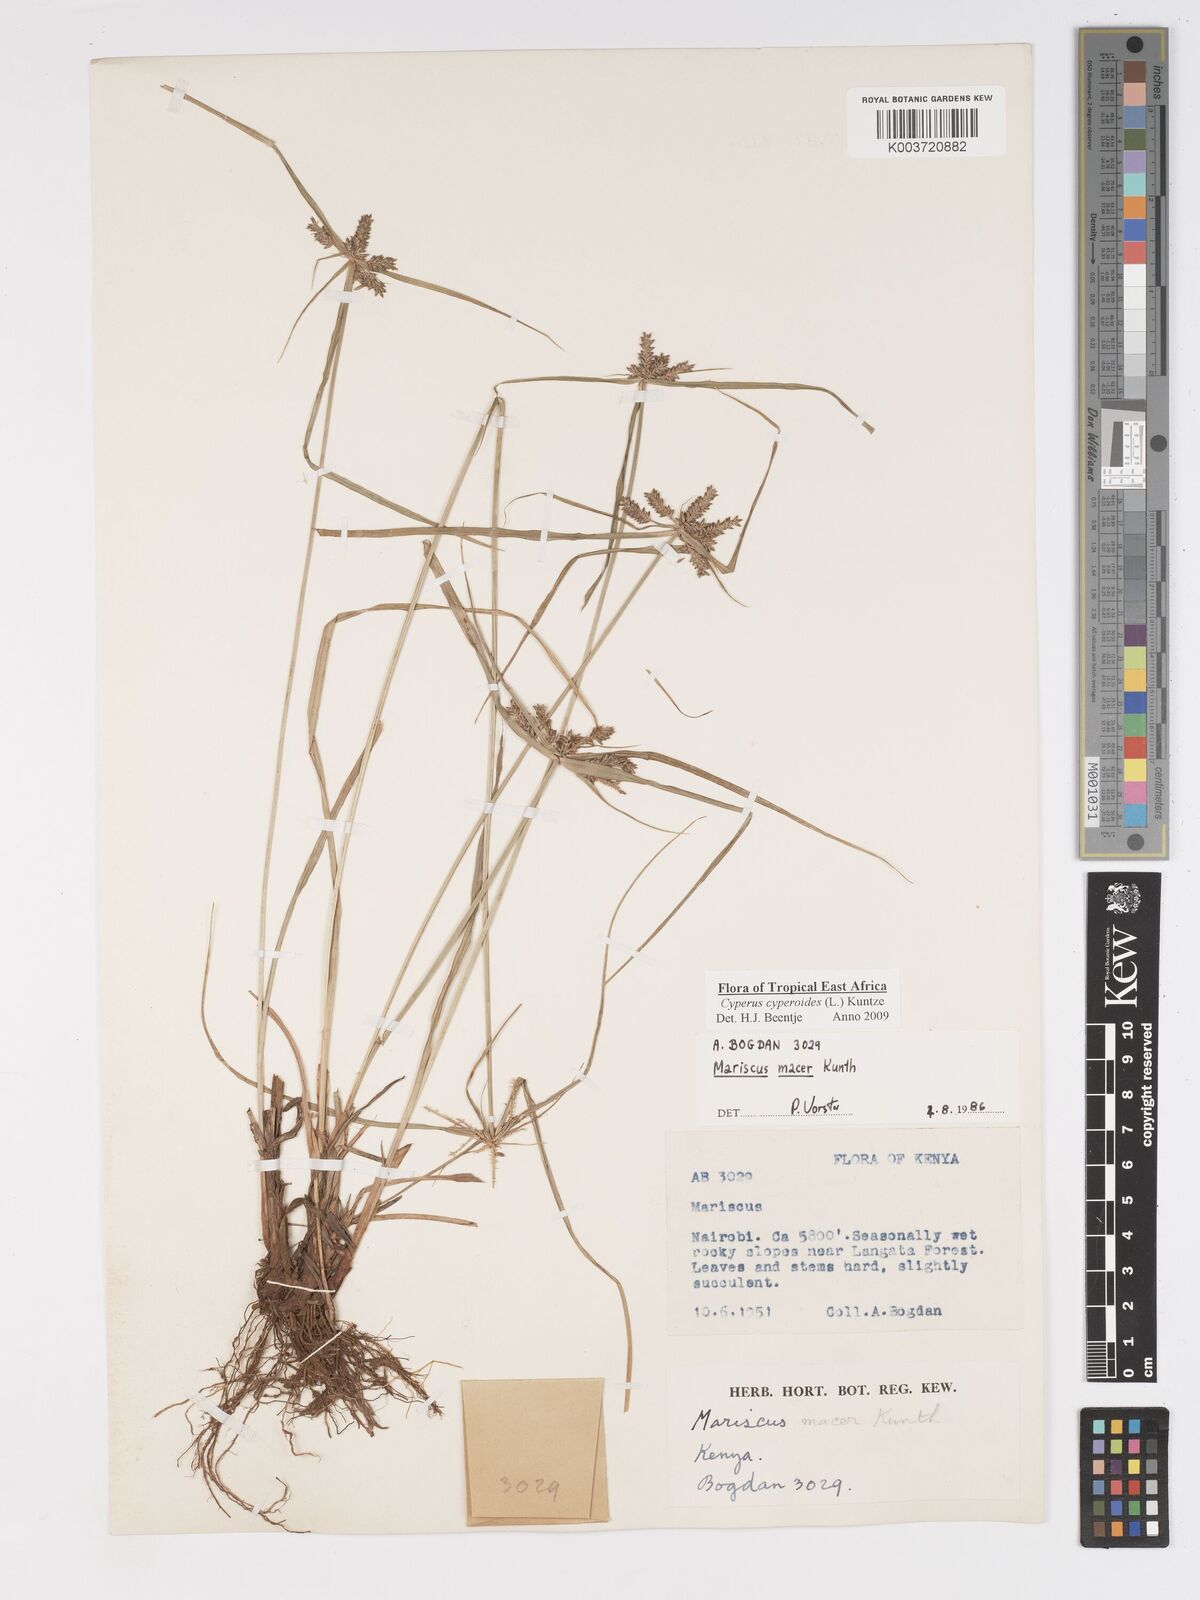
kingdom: Plantae
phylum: Tracheophyta
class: Liliopsida
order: Poales
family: Cyperaceae
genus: Cyperus
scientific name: Cyperus macrocarpus
